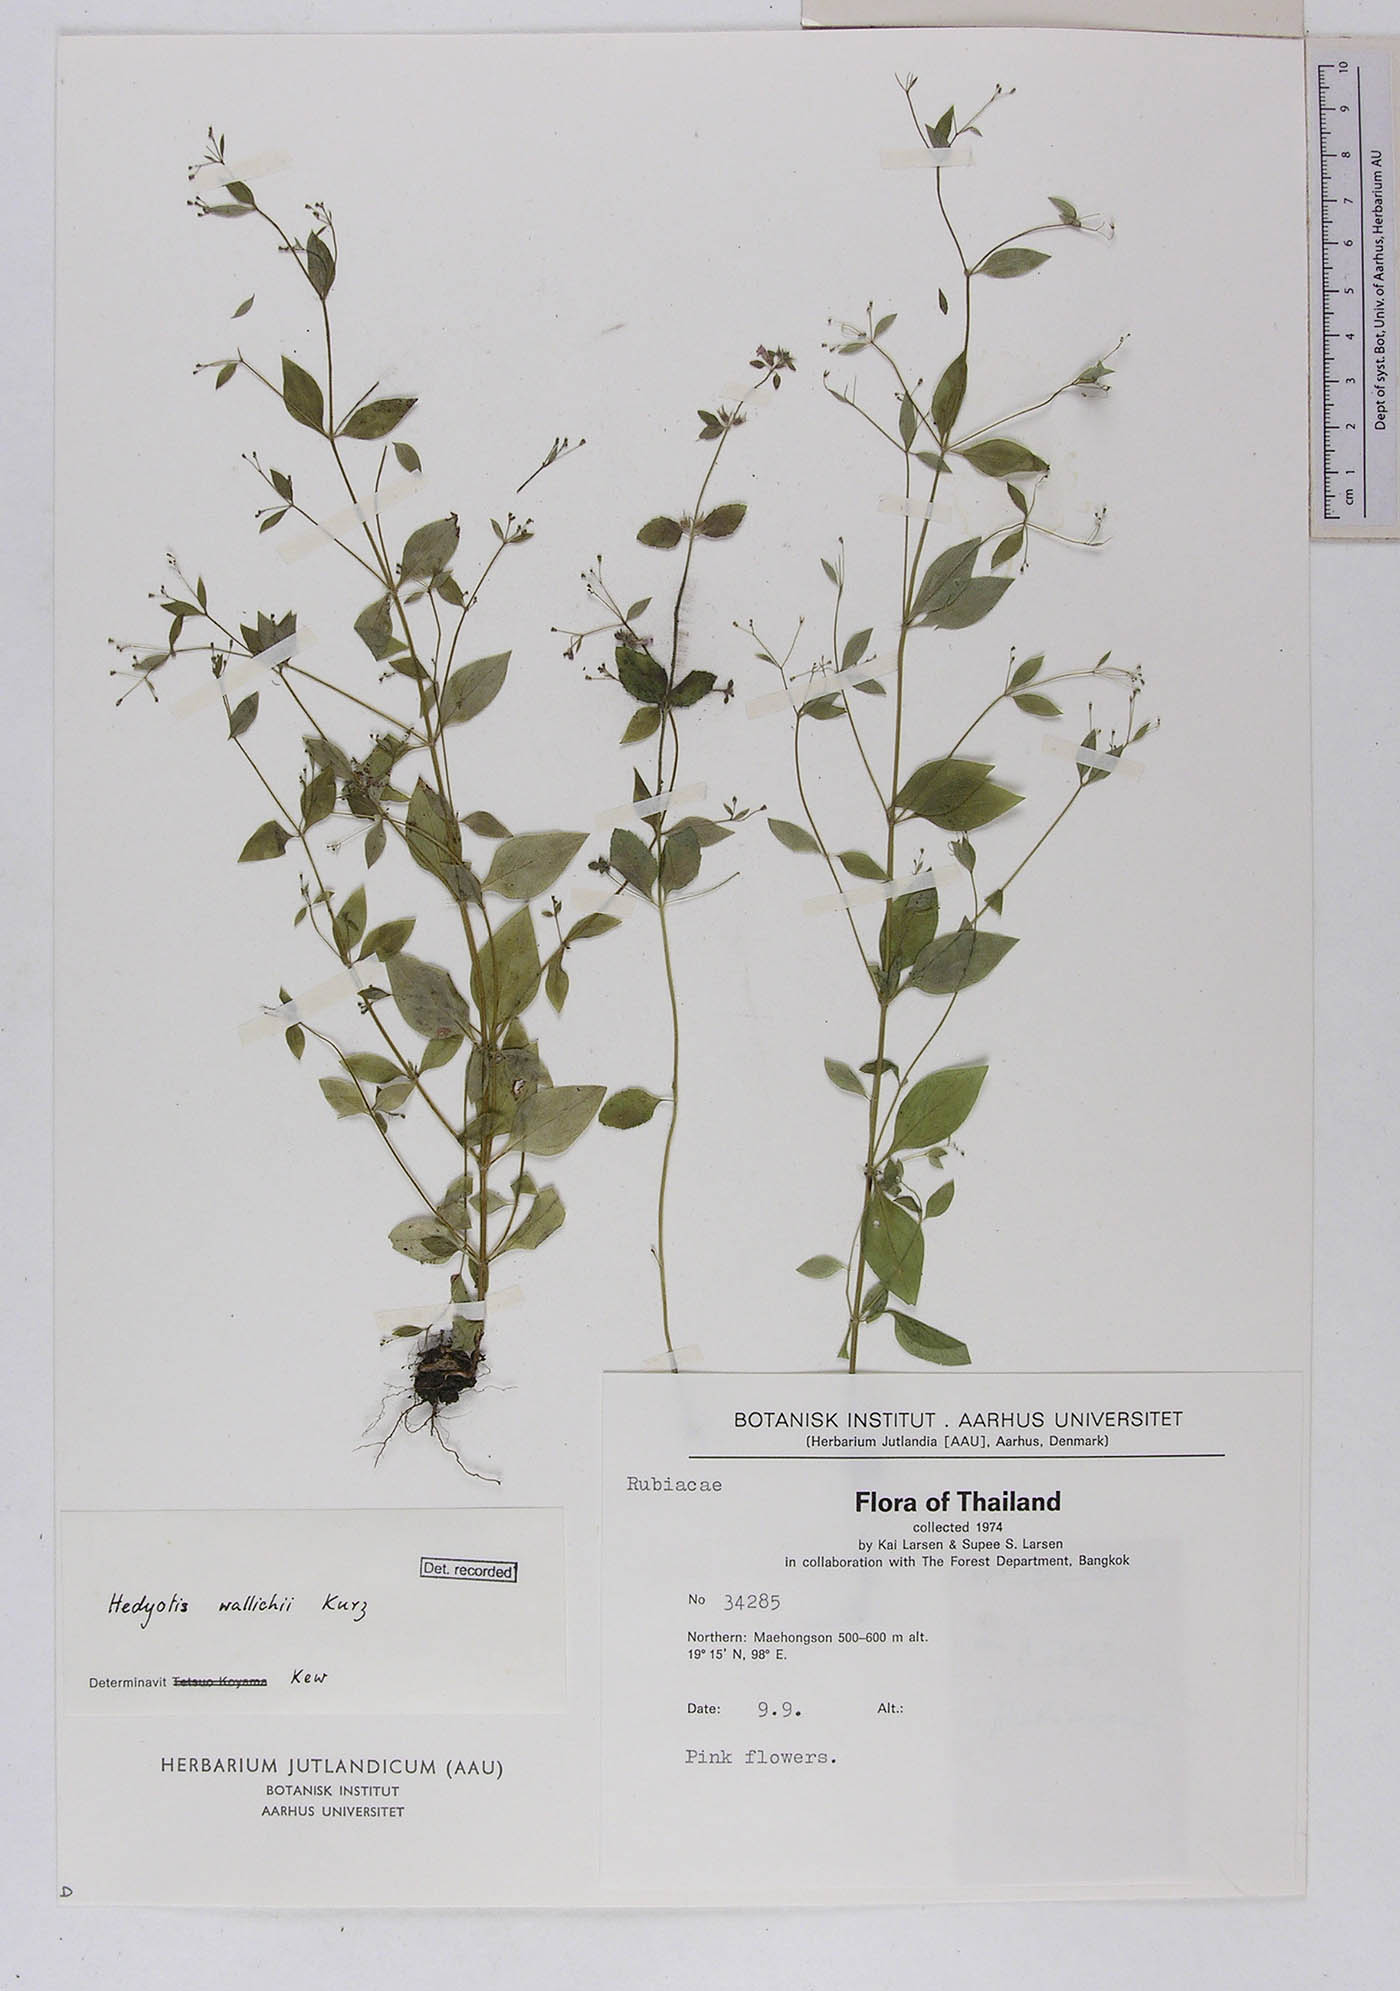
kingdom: Plantae
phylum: Tracheophyta
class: Magnoliopsida
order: Gentianales
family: Rubiaceae
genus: Hedyotis
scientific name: Hedyotis kurzii
